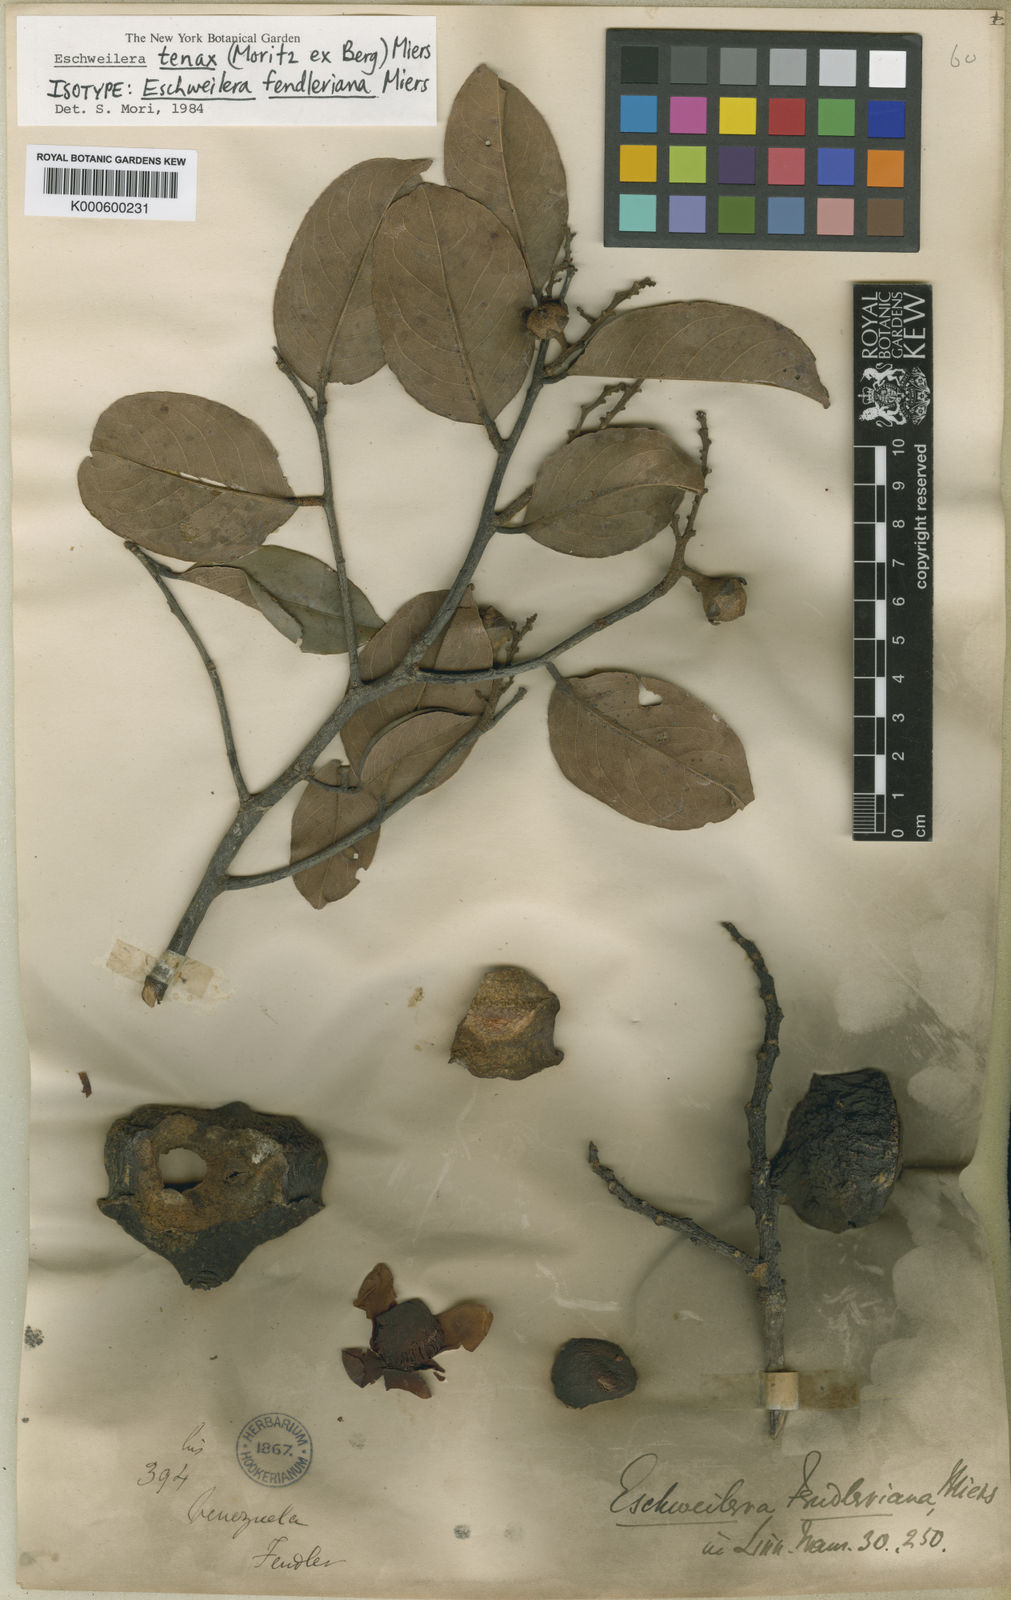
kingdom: Plantae
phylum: Tracheophyta
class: Magnoliopsida
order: Ericales
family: Lecythidaceae
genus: Eschweilera
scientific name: Eschweilera tenax
